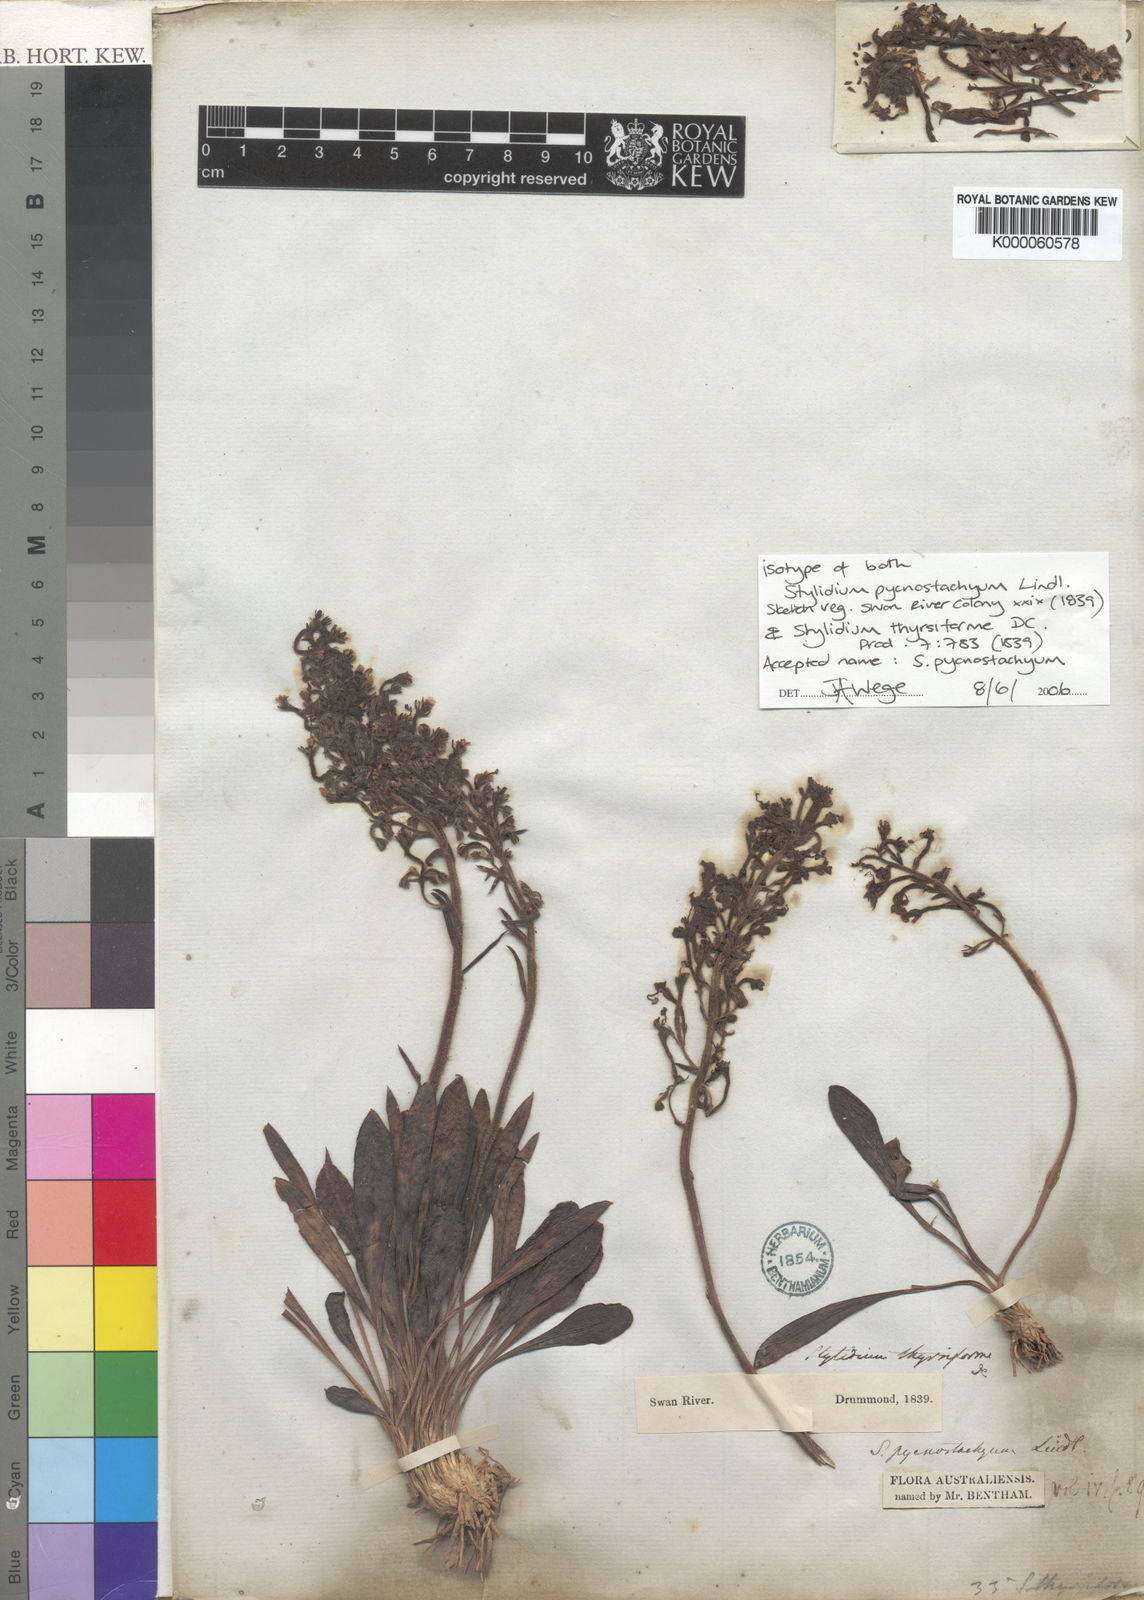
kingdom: Plantae
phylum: Tracheophyta
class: Magnoliopsida
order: Asterales
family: Stylidiaceae
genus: Stylidium
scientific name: Stylidium pycnostachyum
